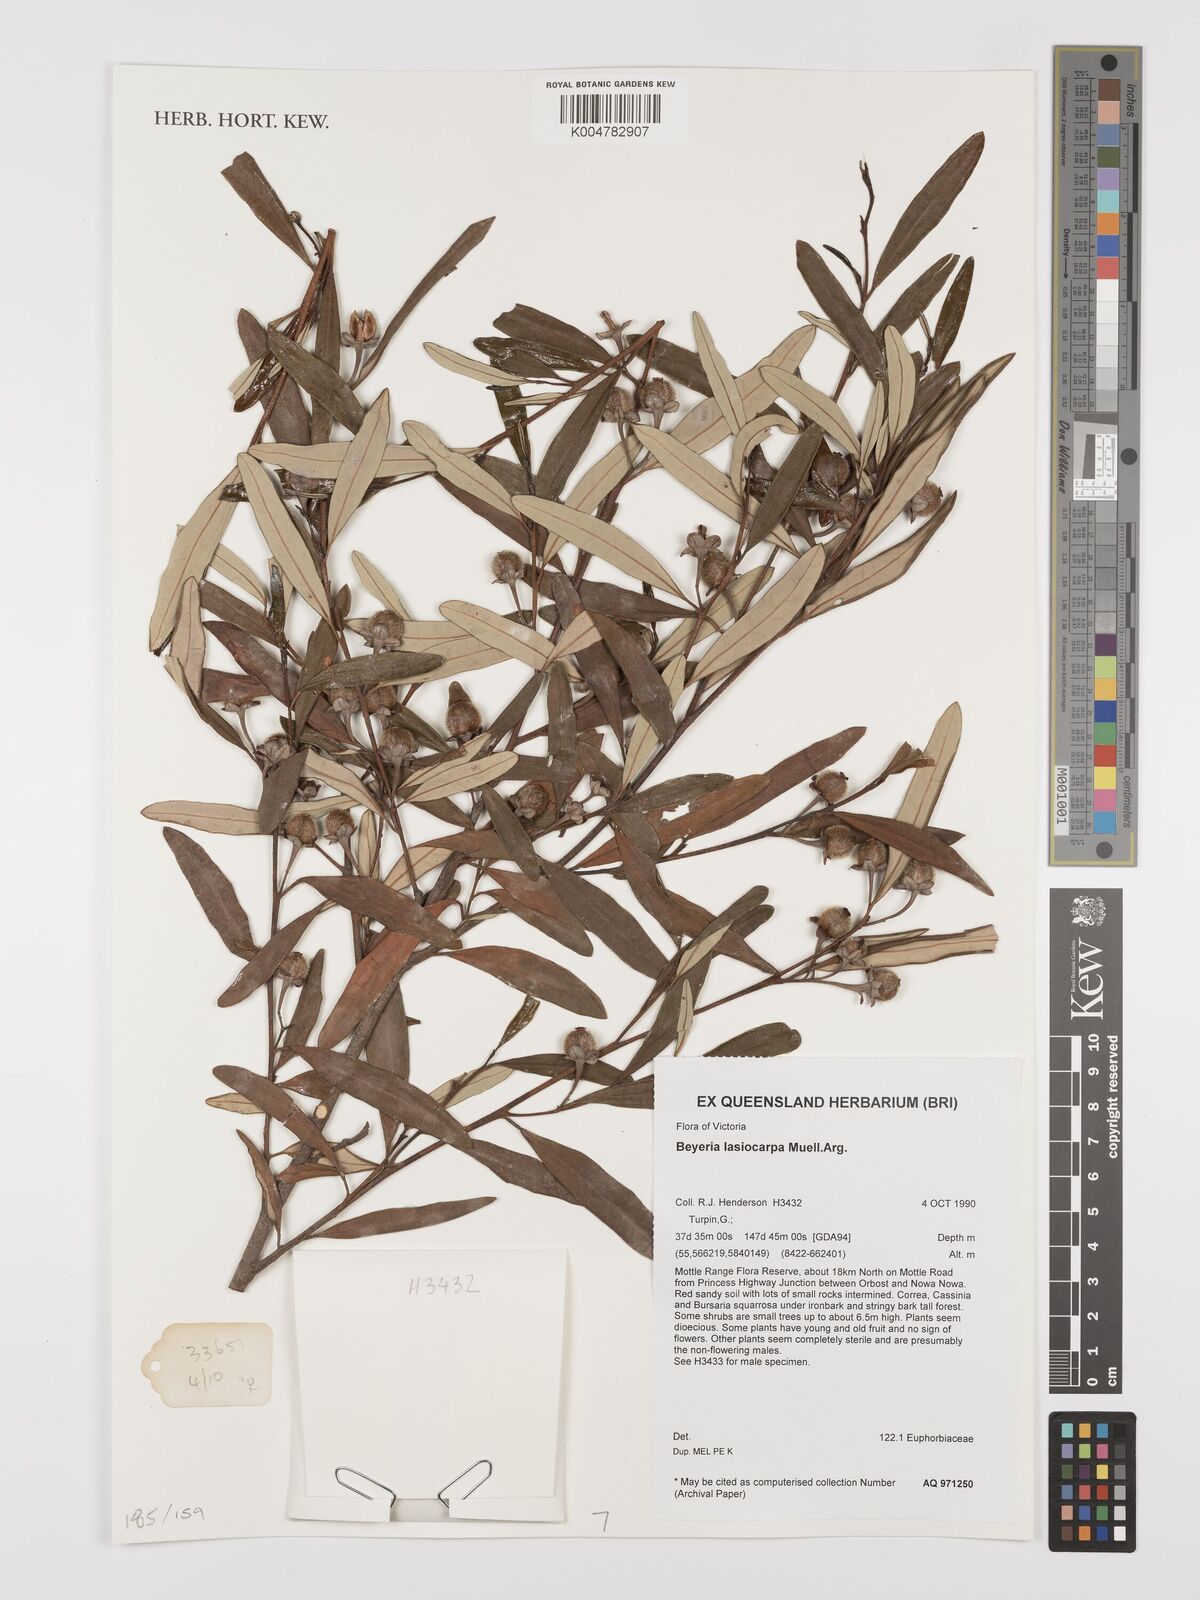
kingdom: Plantae
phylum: Tracheophyta
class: Magnoliopsida
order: Malpighiales
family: Euphorbiaceae
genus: Beyeria
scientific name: Beyeria lasiocarpa
